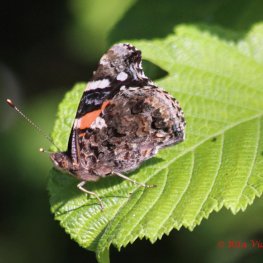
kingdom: Animalia
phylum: Arthropoda
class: Insecta
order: Lepidoptera
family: Nymphalidae
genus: Vanessa
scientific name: Vanessa atalanta
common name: Red Admiral
